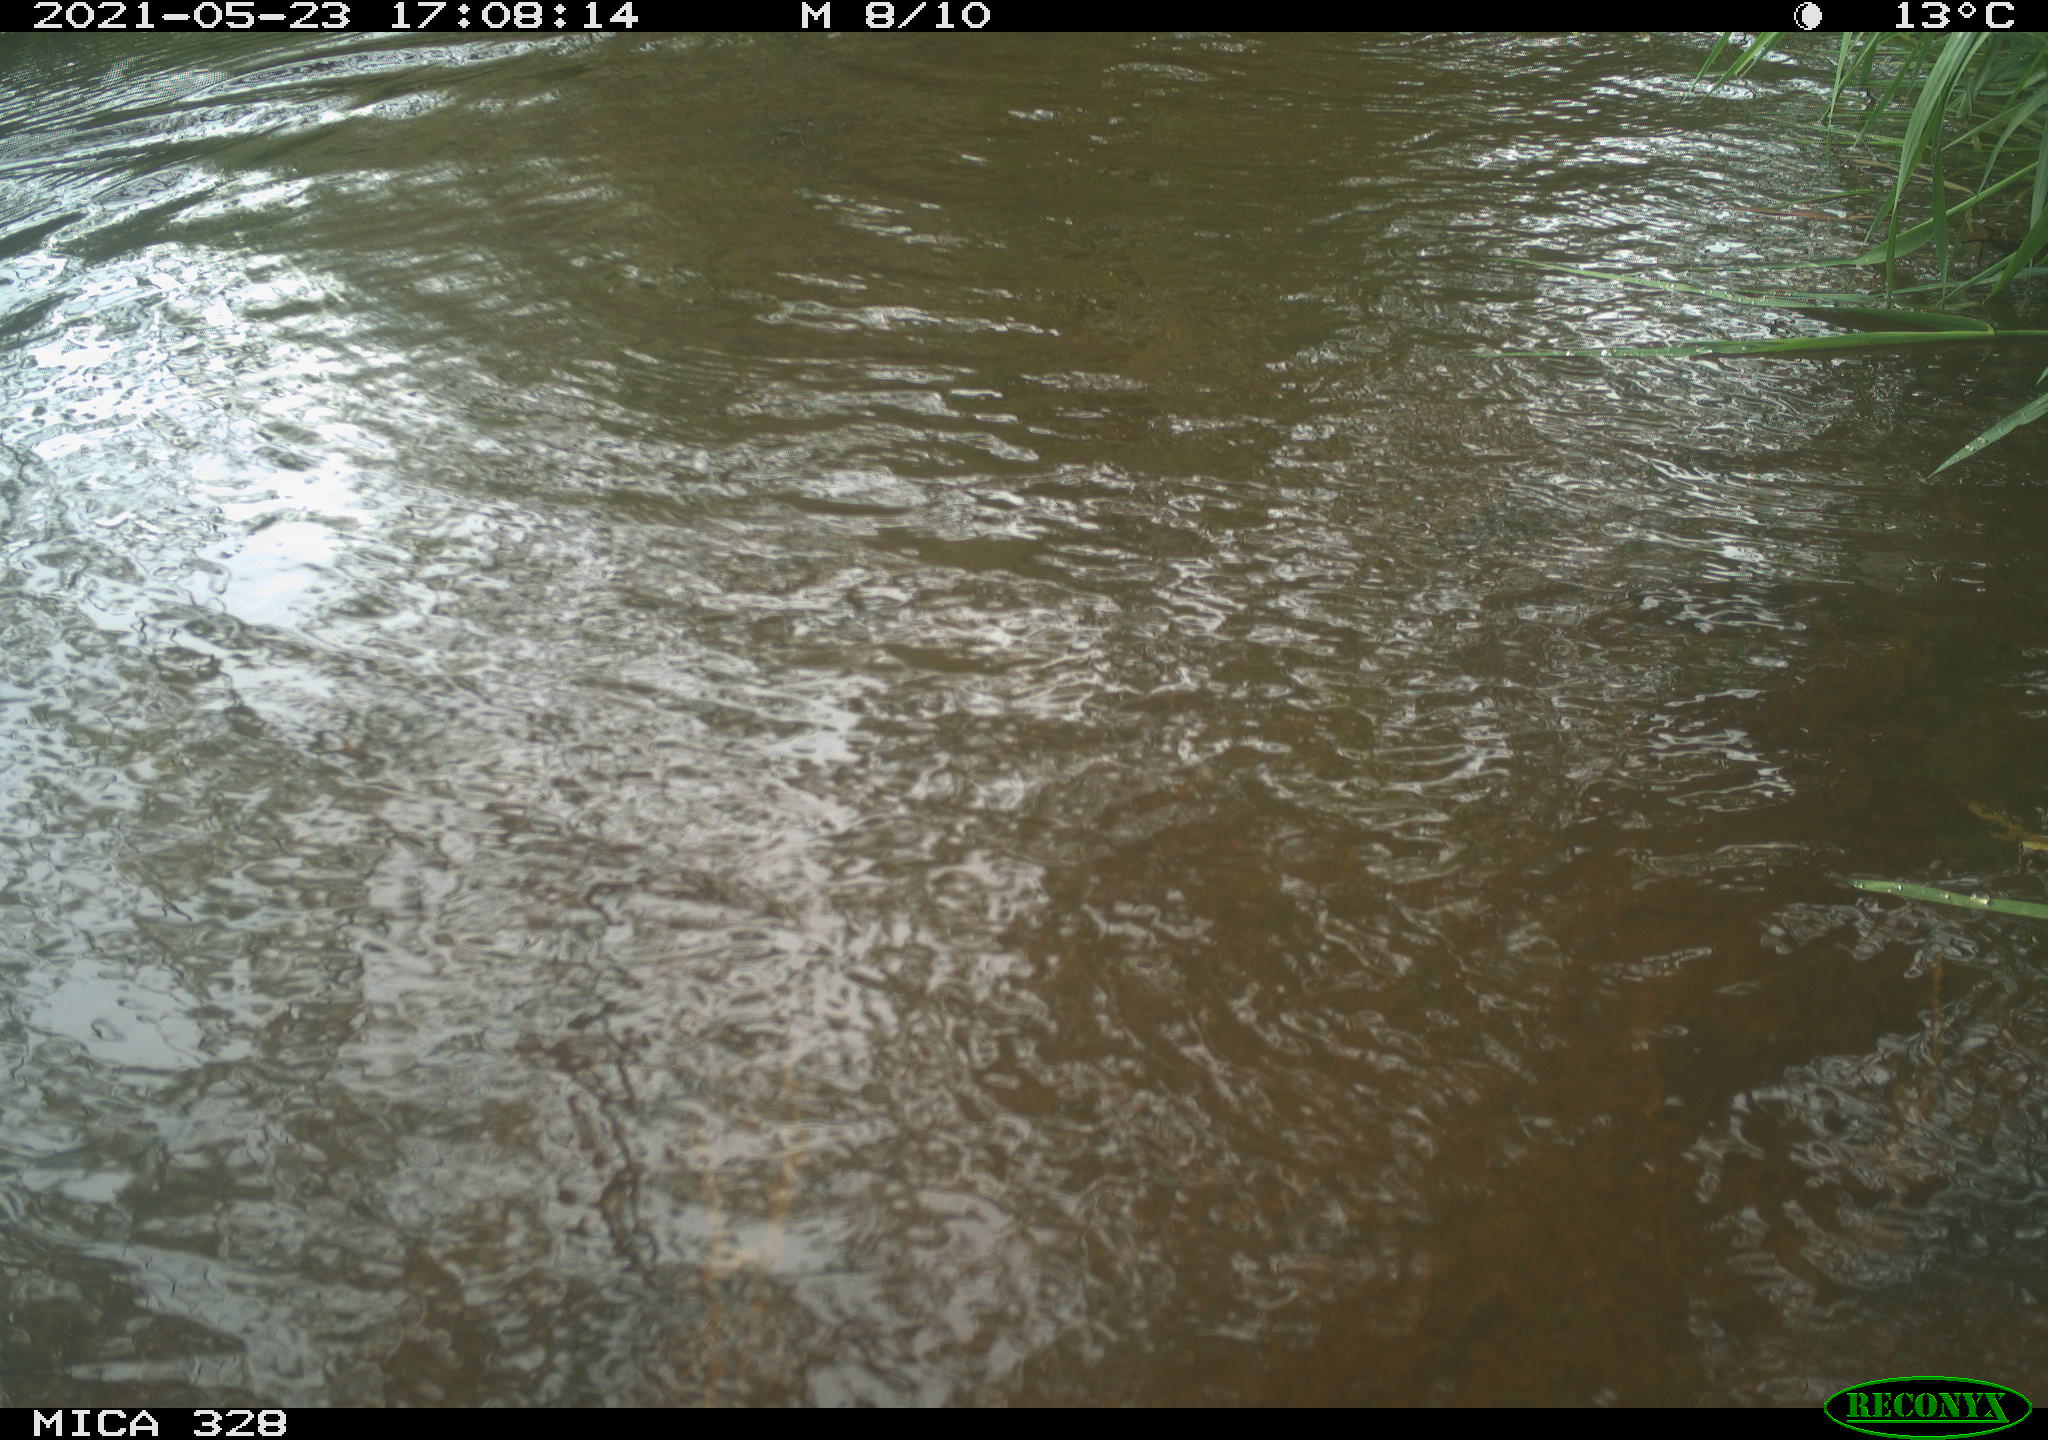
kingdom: Animalia
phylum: Chordata
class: Mammalia
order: Rodentia
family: Cricetidae
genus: Ondatra
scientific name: Ondatra zibethicus
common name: Muskrat
